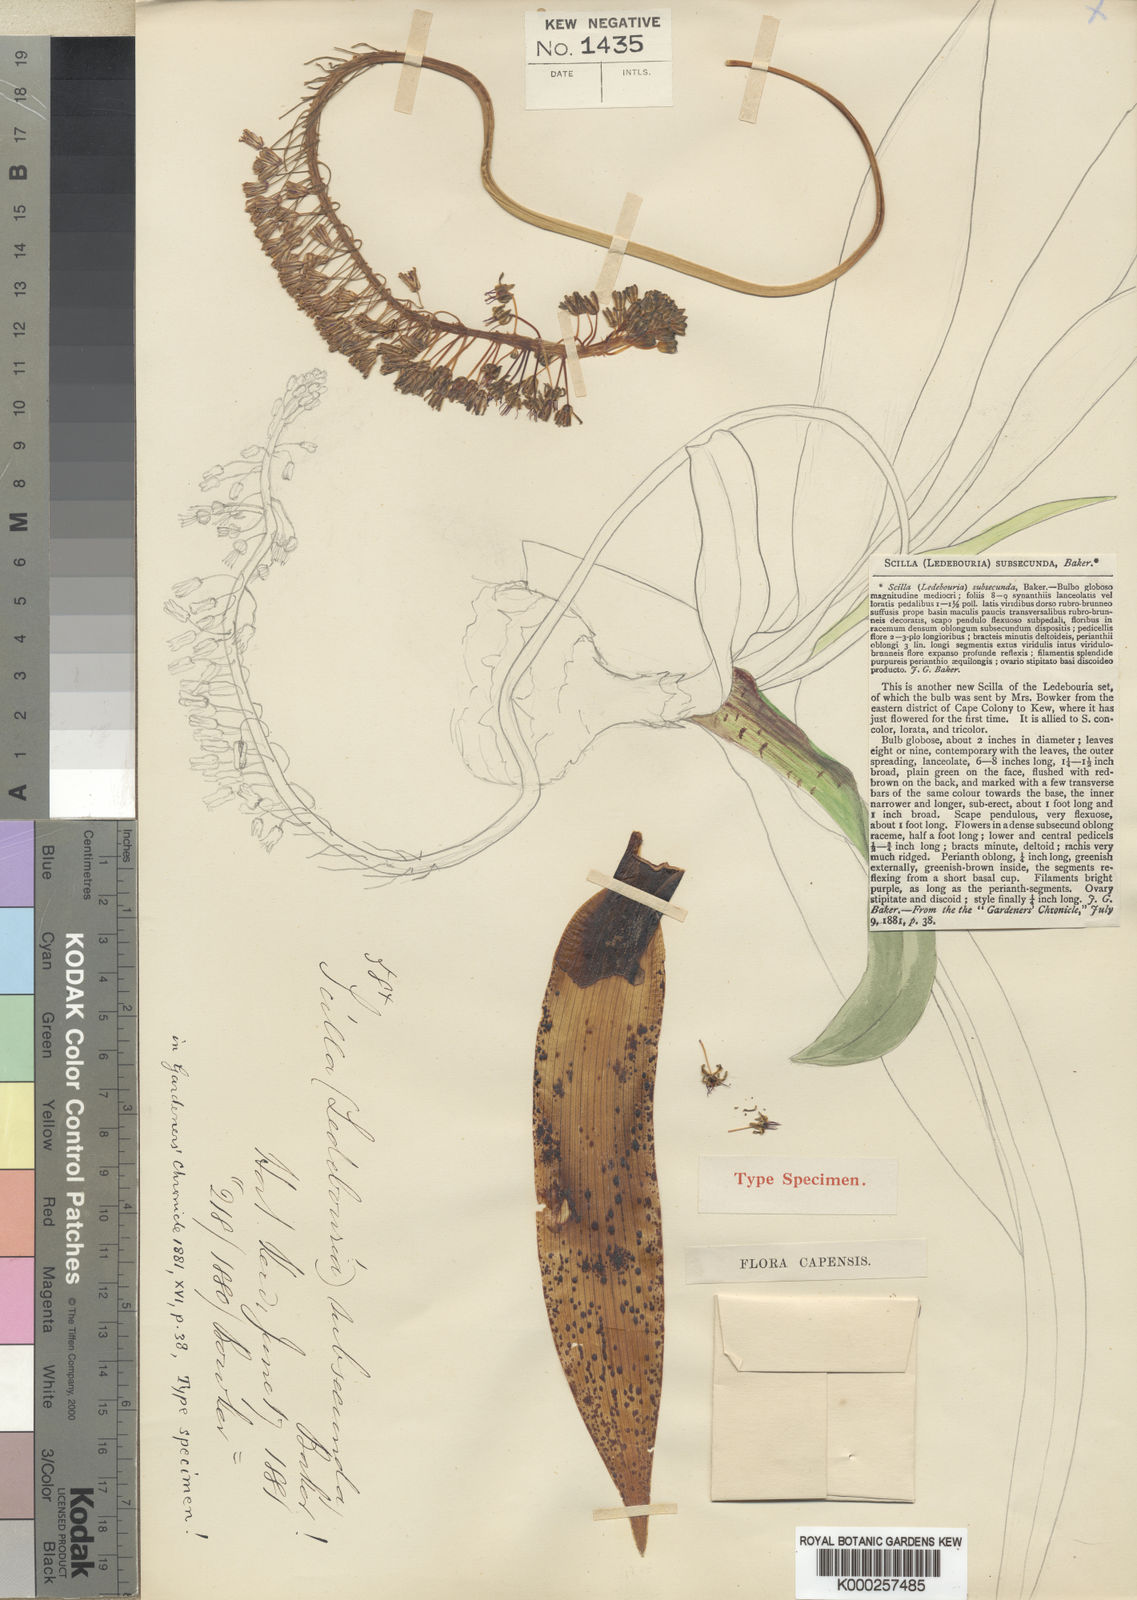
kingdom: Plantae
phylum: Tracheophyta
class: Liliopsida
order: Asparagales
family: Asparagaceae
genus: Ledebouria
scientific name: Ledebouria floribunda
